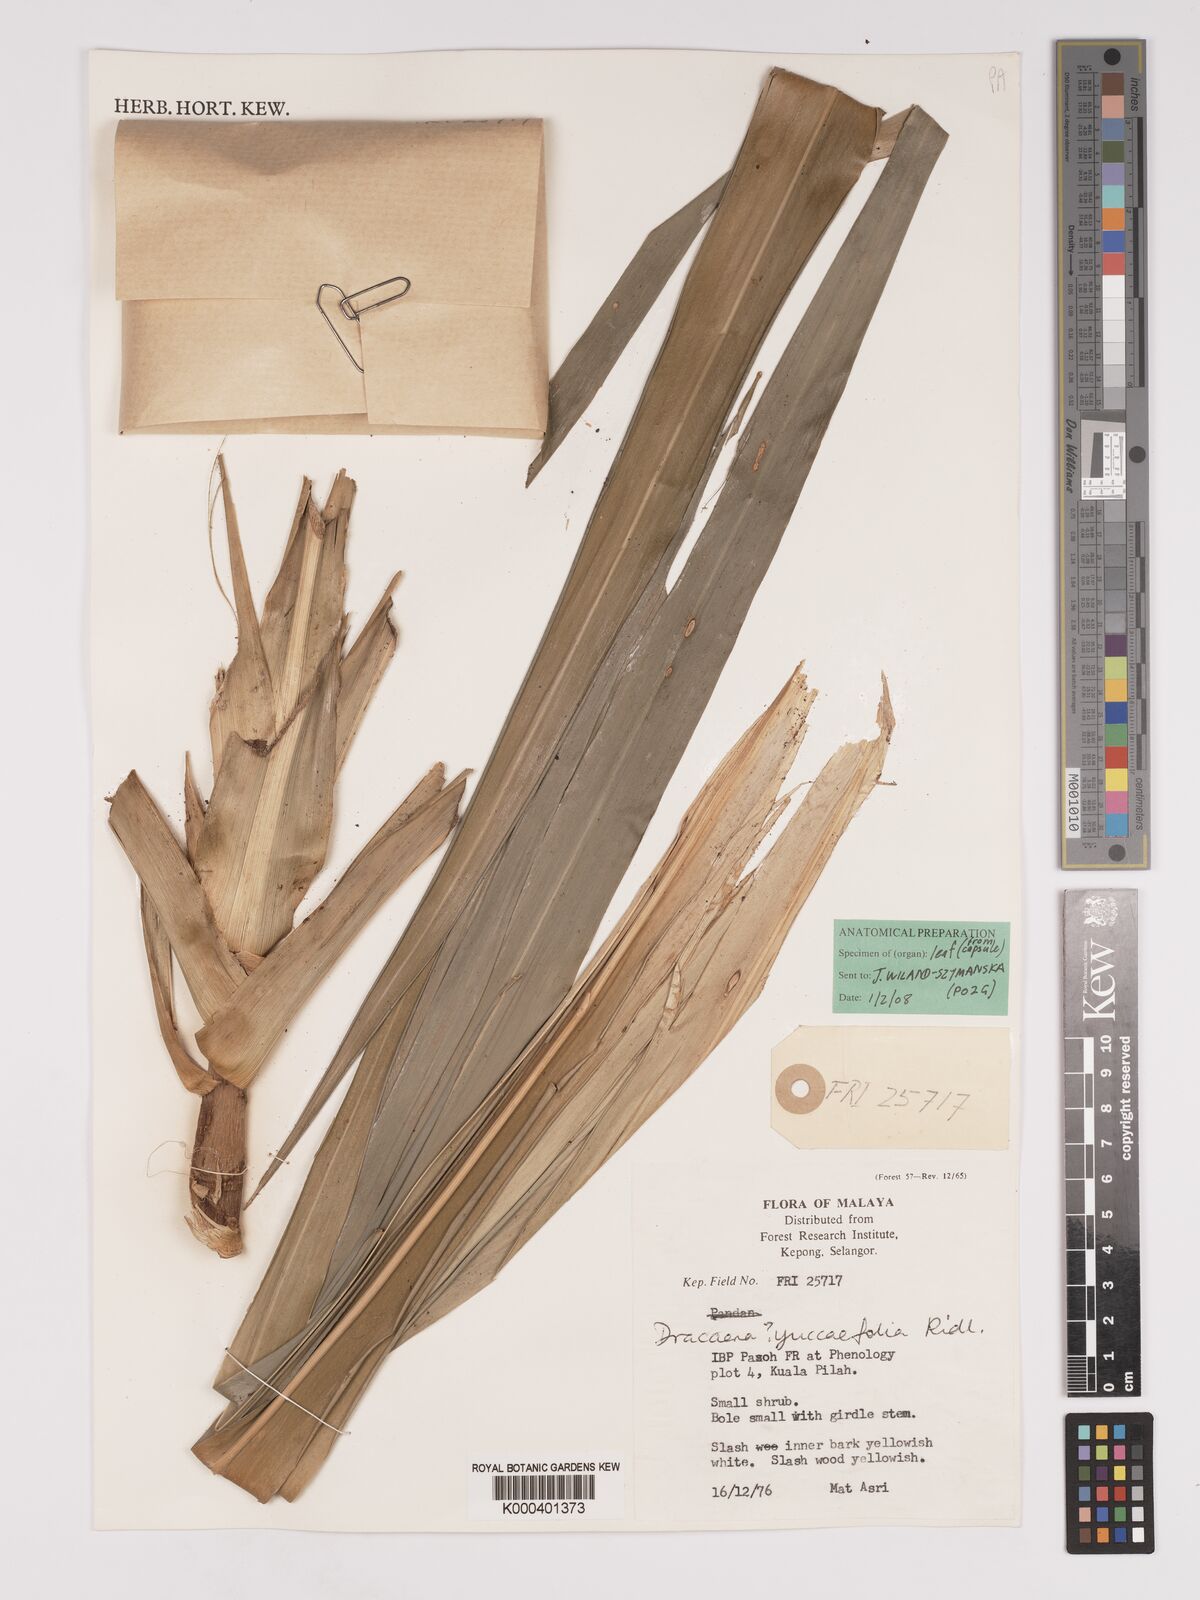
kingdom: Plantae
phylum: Tracheophyta
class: Liliopsida
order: Asparagales
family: Asparagaceae
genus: Dracaena
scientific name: Dracaena yuccifolia
